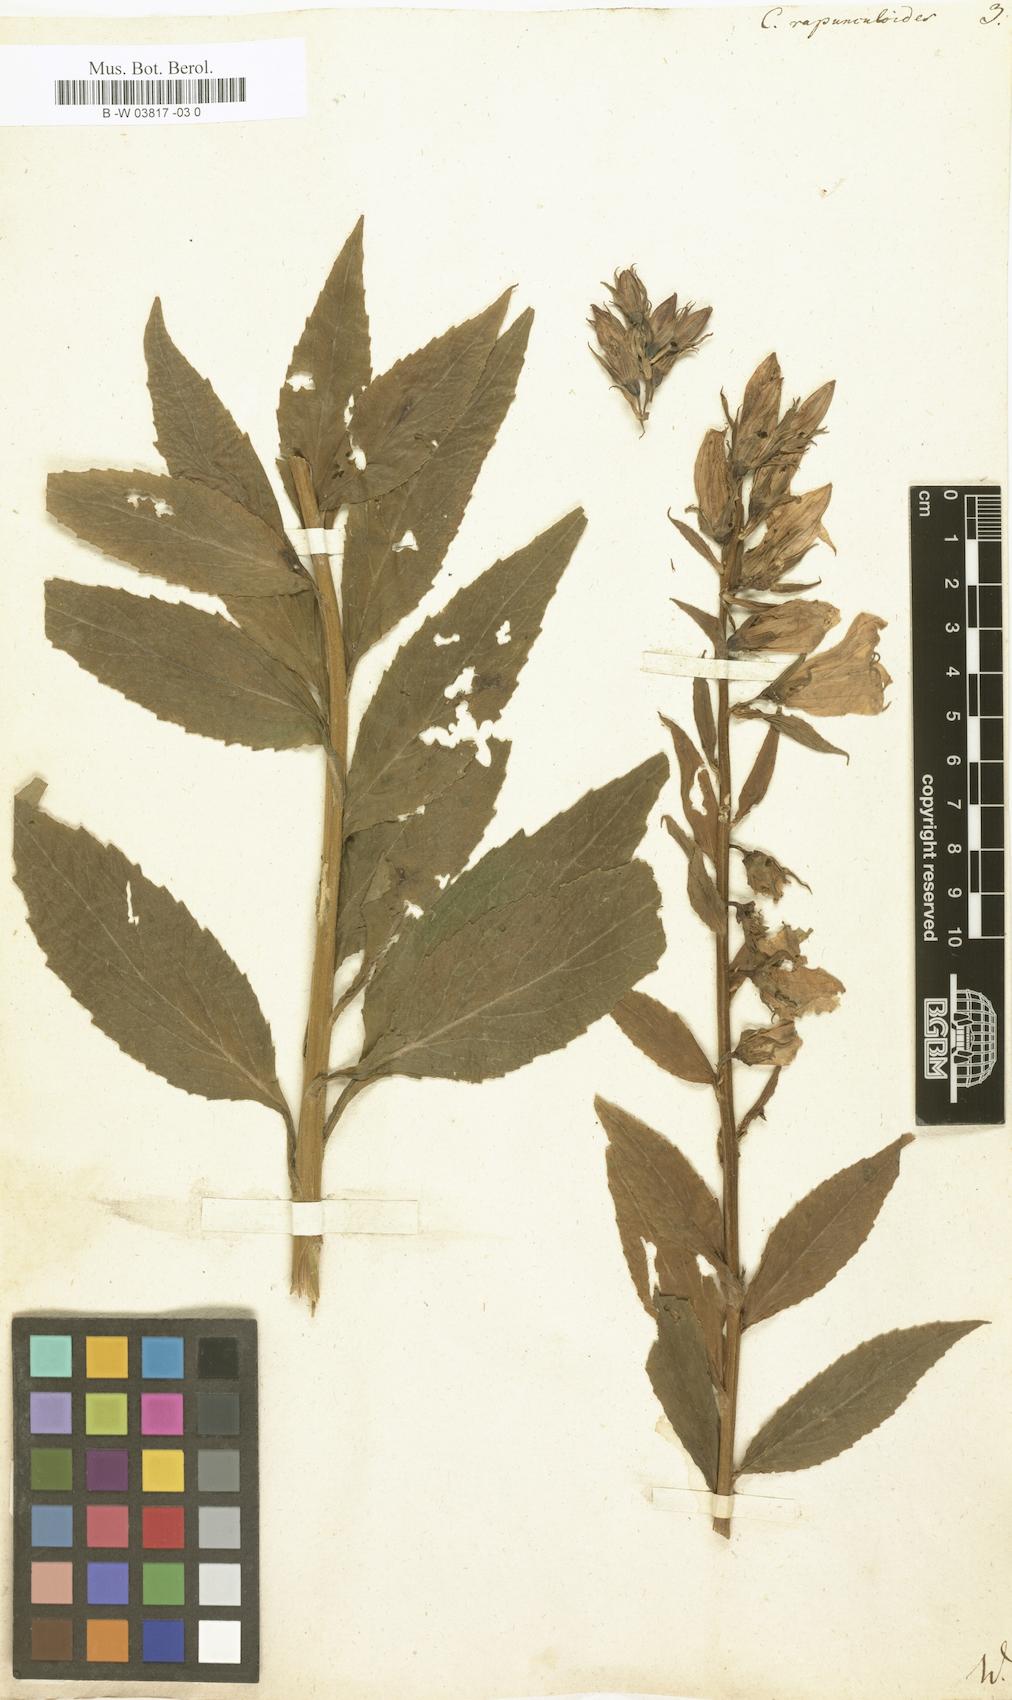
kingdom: Plantae
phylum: Tracheophyta
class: Magnoliopsida
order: Asterales
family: Campanulaceae
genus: Campanula
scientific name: Campanula rapunculoides
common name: Creeping bellflower
